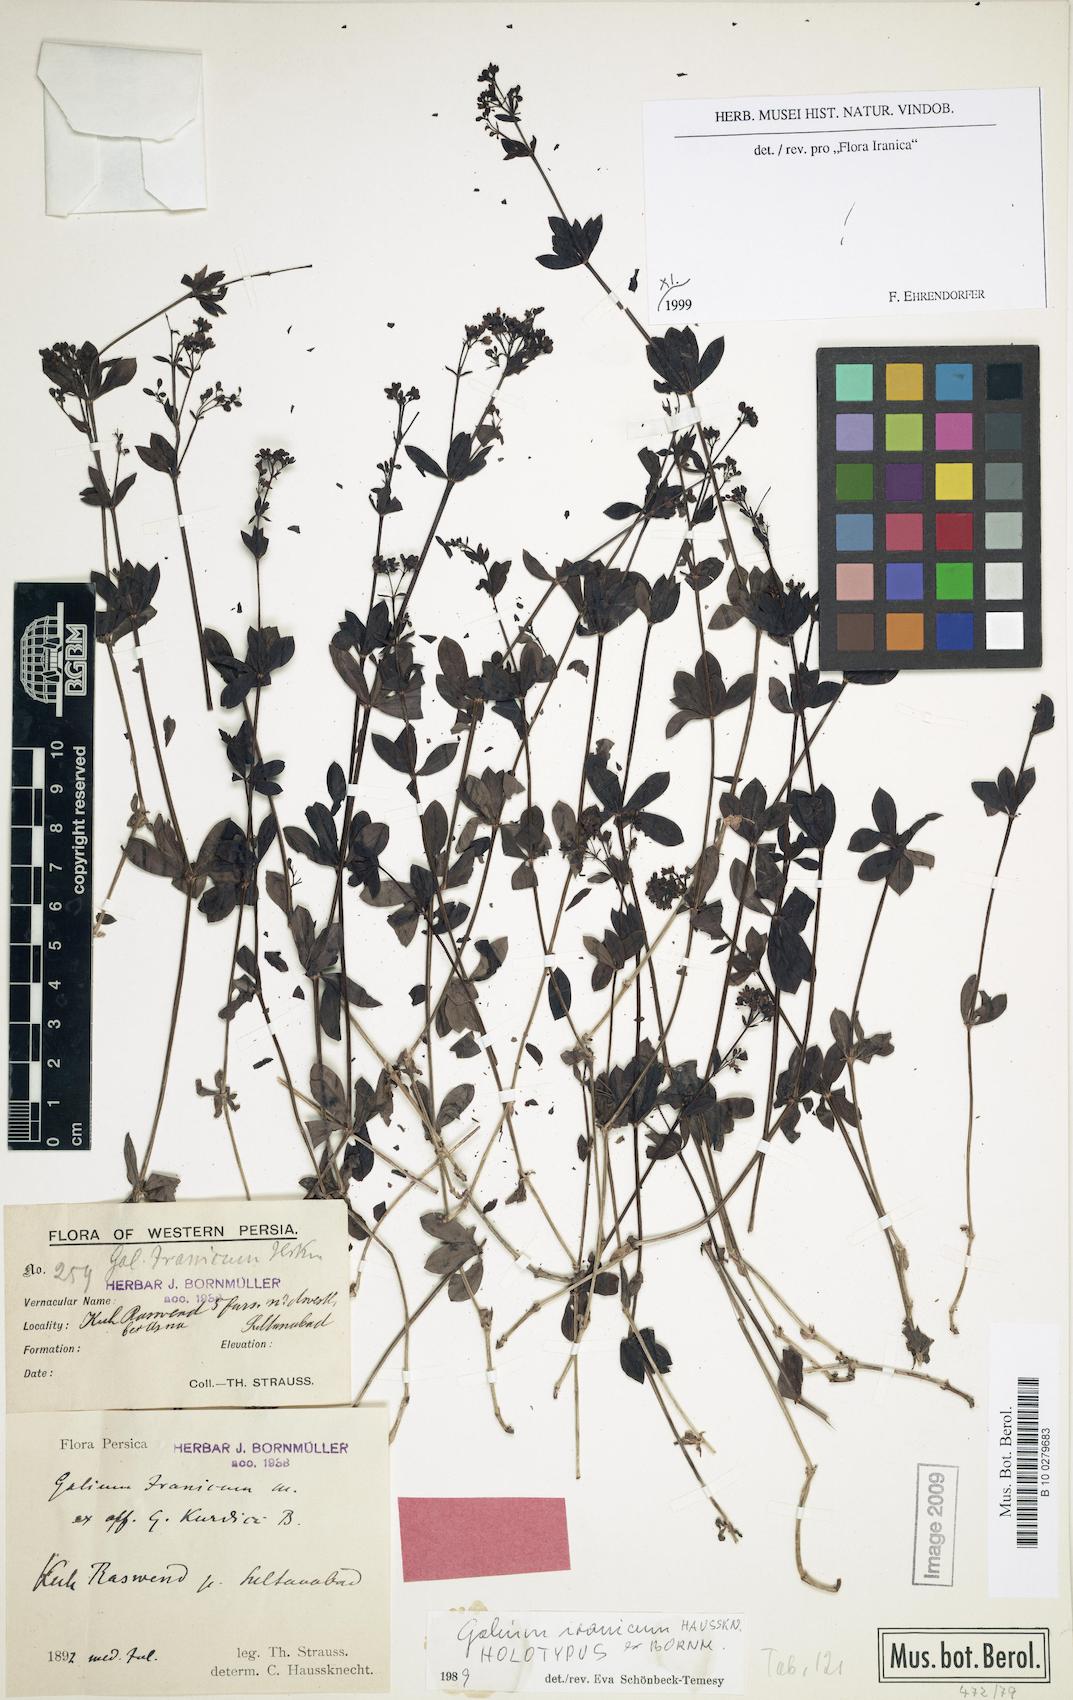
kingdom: Plantae
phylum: Tracheophyta
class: Magnoliopsida
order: Gentianales
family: Rubiaceae
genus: Galium
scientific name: Galium iranicum
